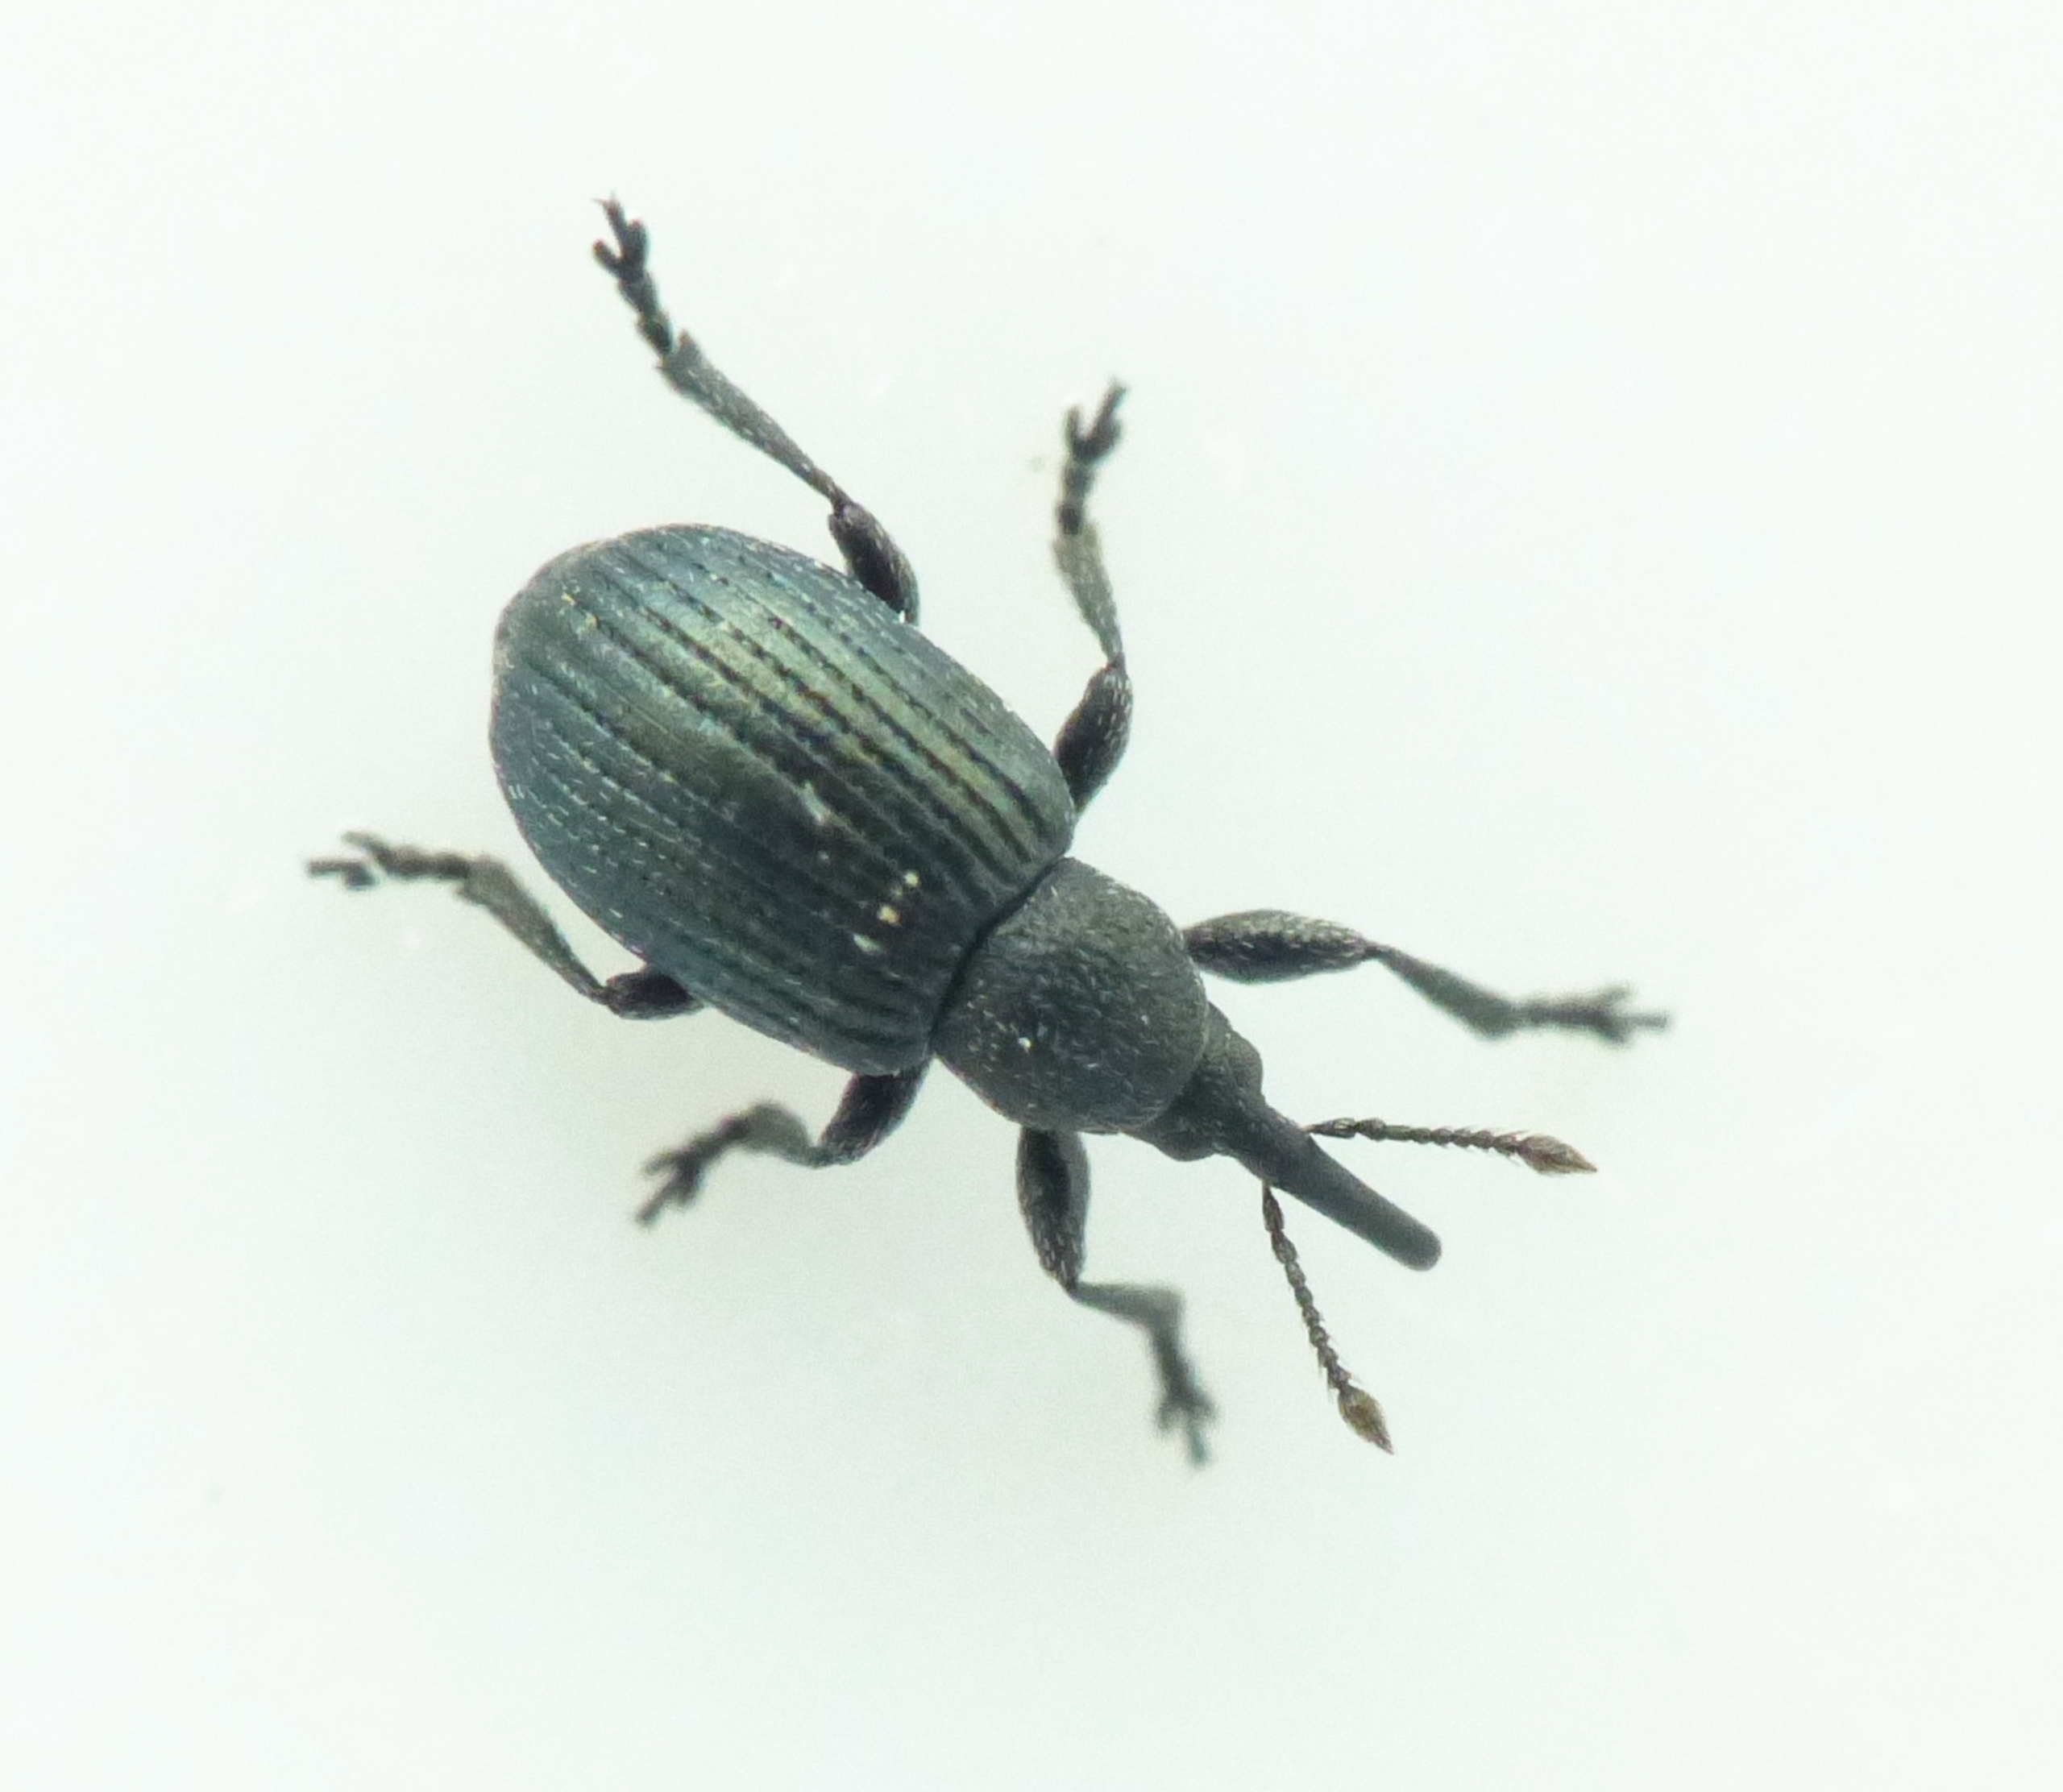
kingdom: Animalia
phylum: Arthropoda
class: Insecta
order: Coleoptera
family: Brentidae
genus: Omphalapion
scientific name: Omphalapion hookerorum
